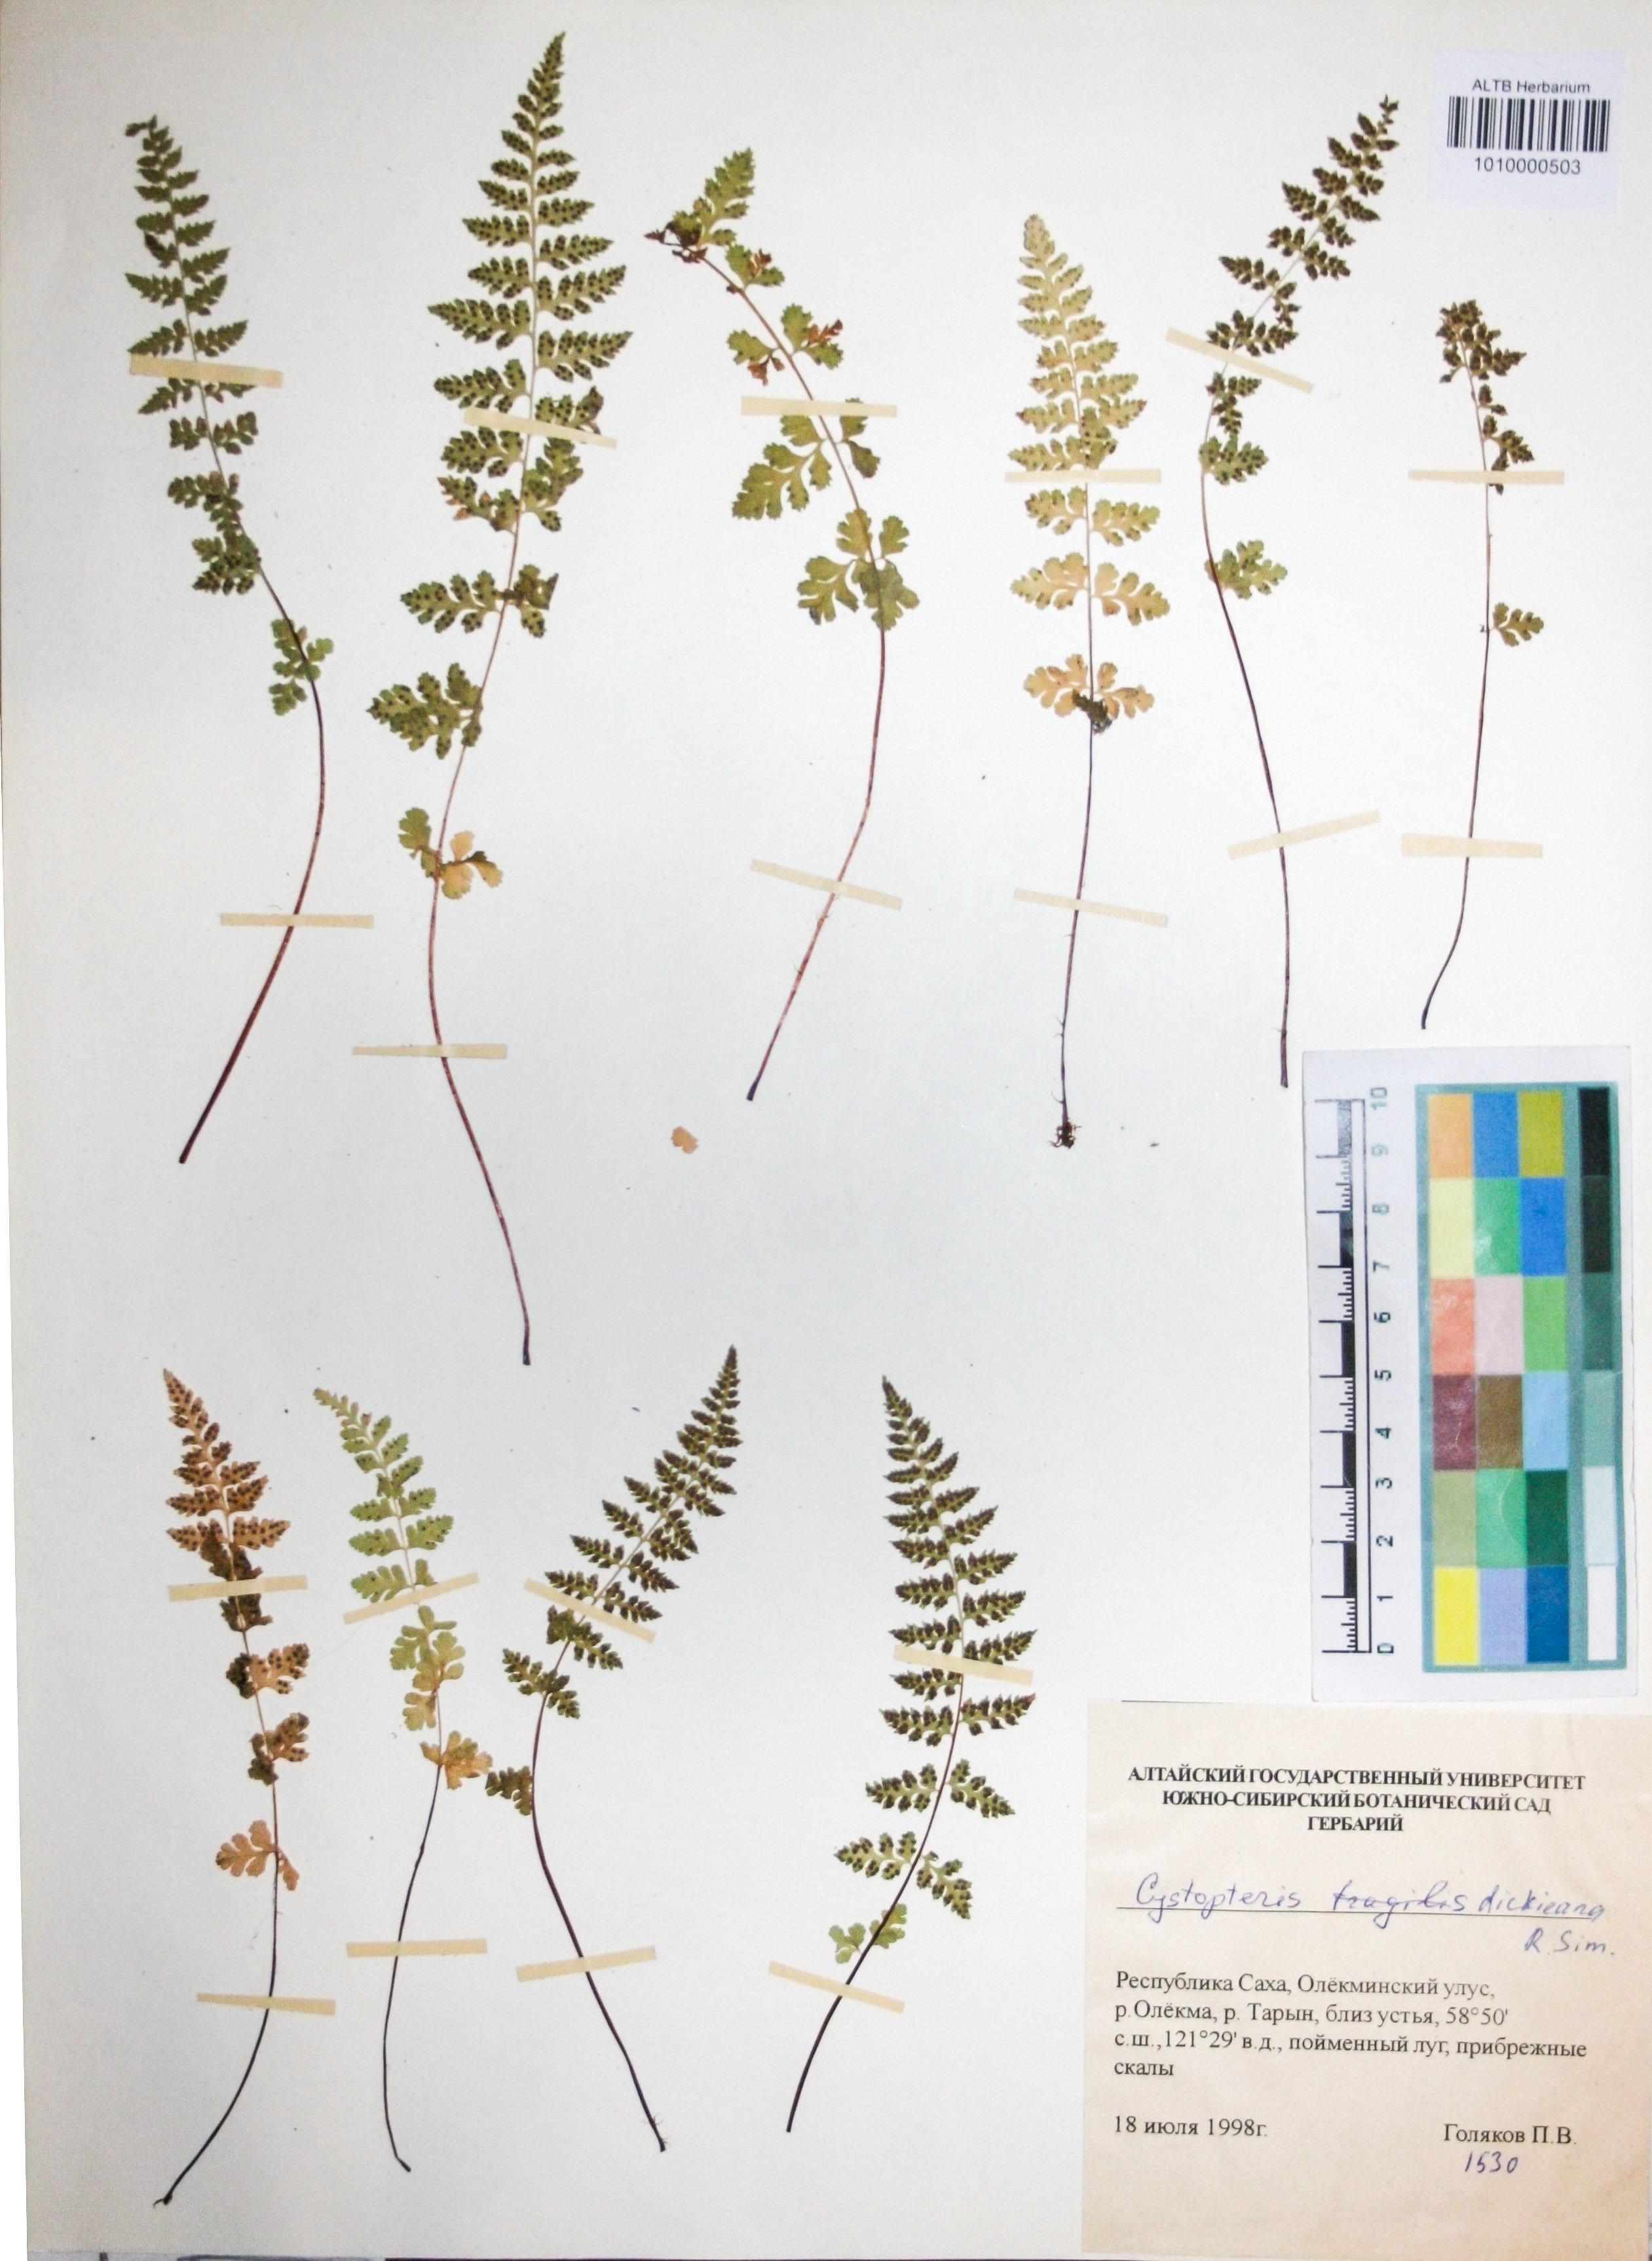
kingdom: Plantae
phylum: Tracheophyta
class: Polypodiopsida
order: Polypodiales
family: Cystopteridaceae
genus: Cystopteris
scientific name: Cystopteris dickieana
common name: Dickie's bladder-fern
